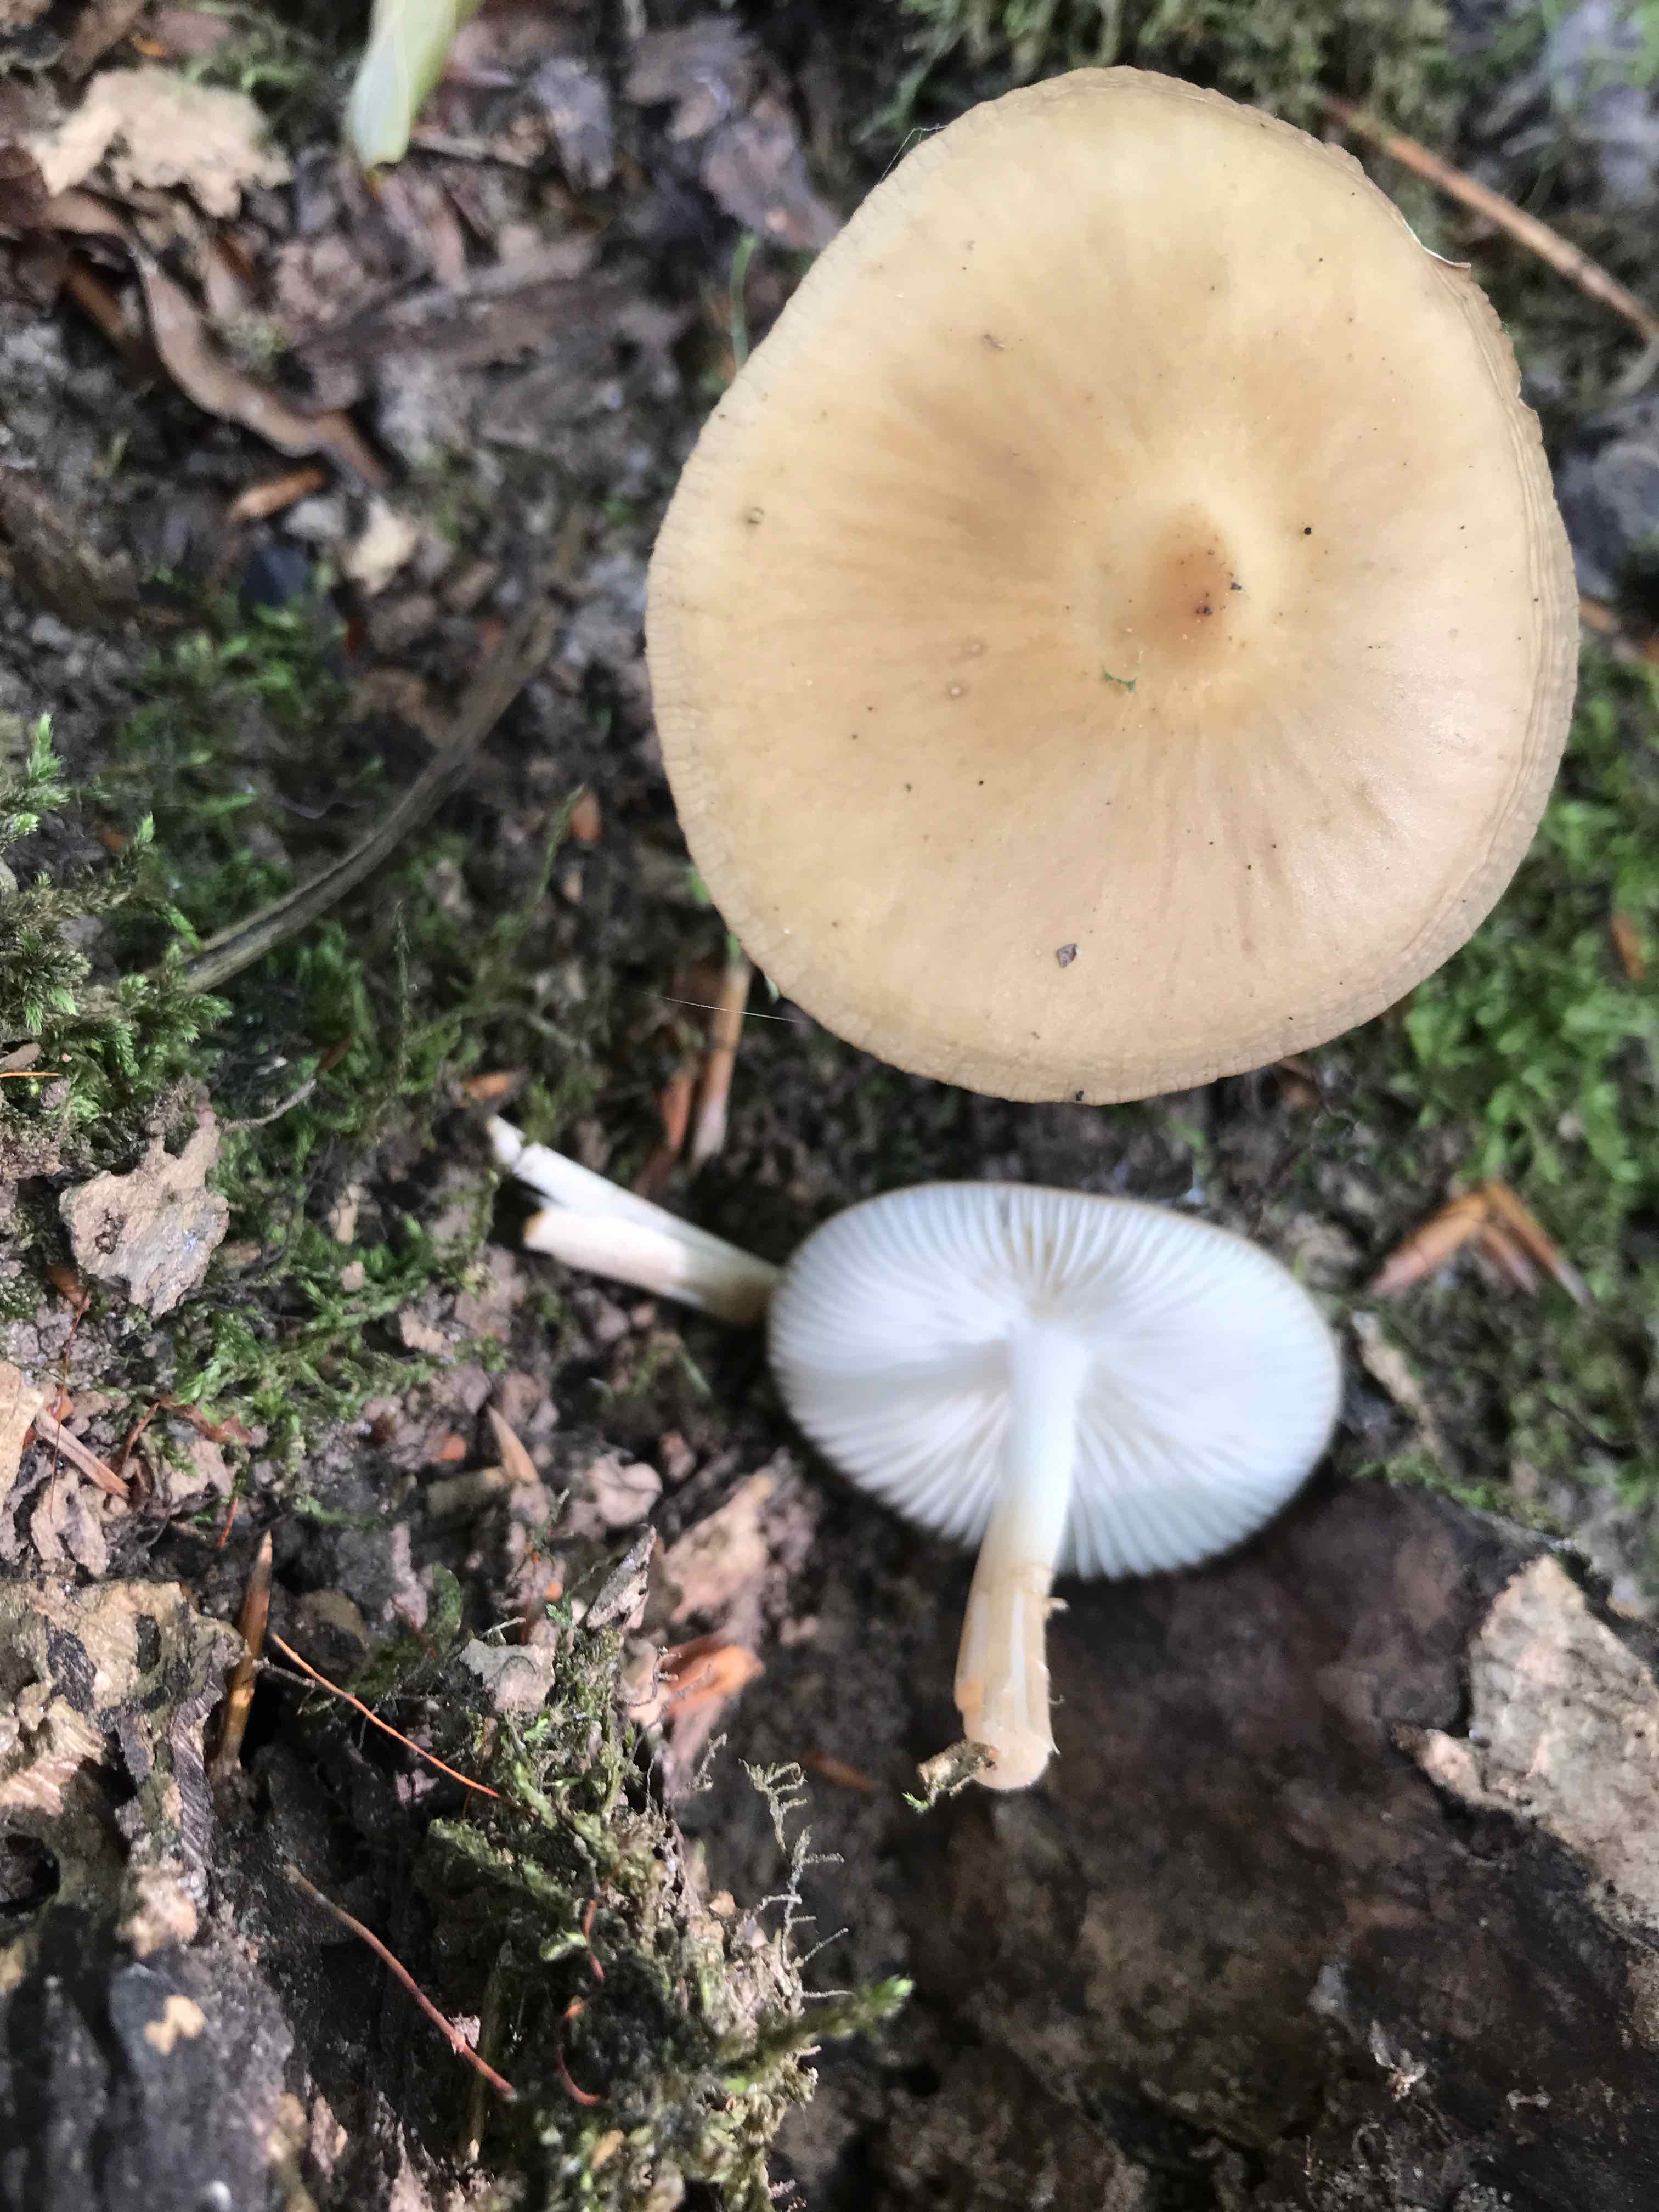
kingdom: Fungi
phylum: Basidiomycota
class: Agaricomycetes
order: Agaricales
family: Physalacriaceae
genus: Hymenopellis
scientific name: Hymenopellis radicata
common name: almindelig pælerodshat
